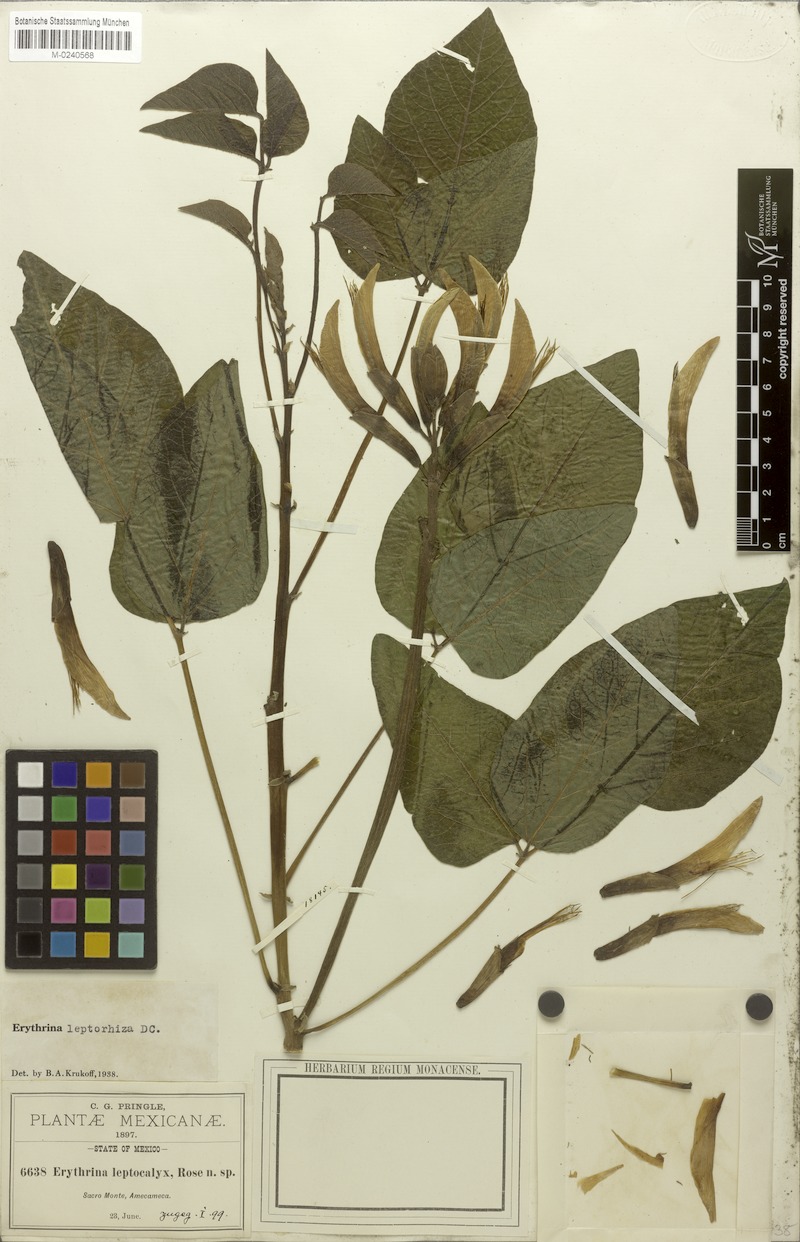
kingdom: Plantae
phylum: Tracheophyta
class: Magnoliopsida
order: Fabales
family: Fabaceae
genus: Erythrina
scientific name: Erythrina leptorhiza
